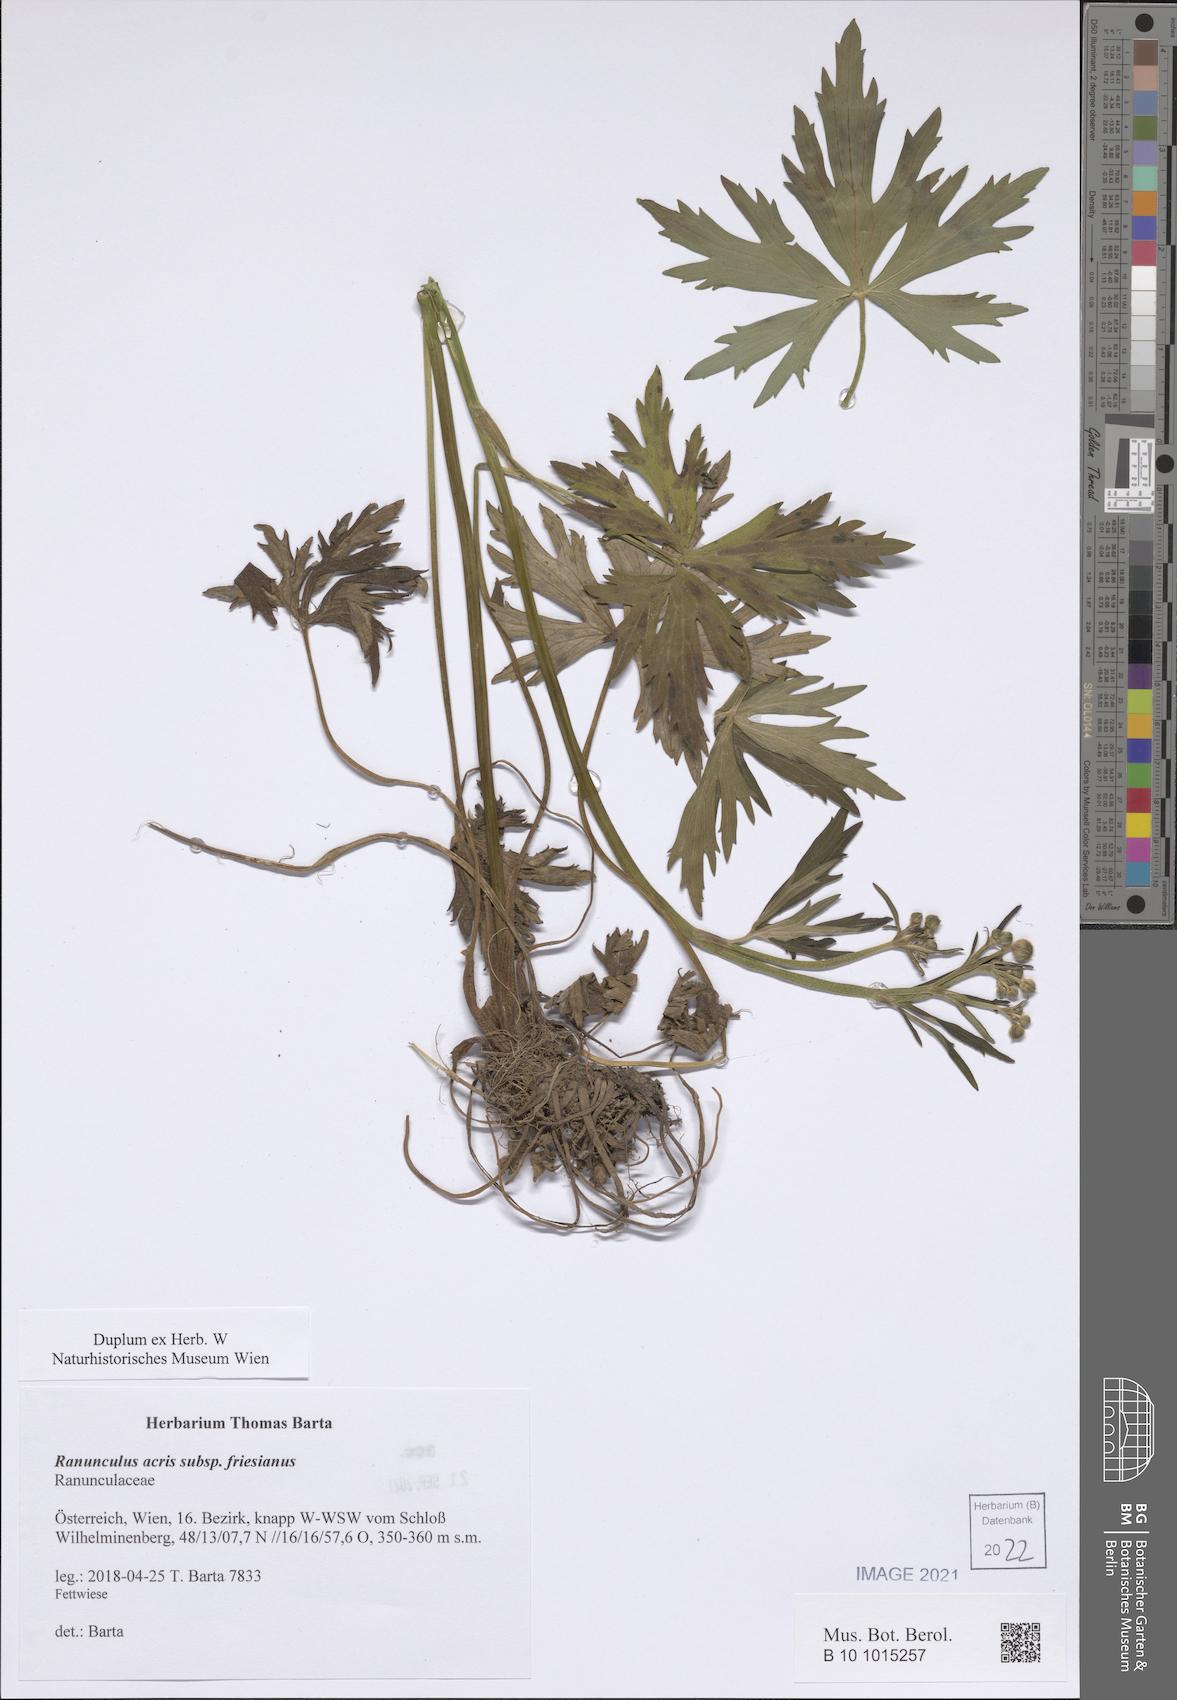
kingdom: Plantae
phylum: Tracheophyta
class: Magnoliopsida
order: Ranunculales
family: Ranunculaceae
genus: Ranunculus
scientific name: Ranunculus acris
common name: Meadow buttercup
